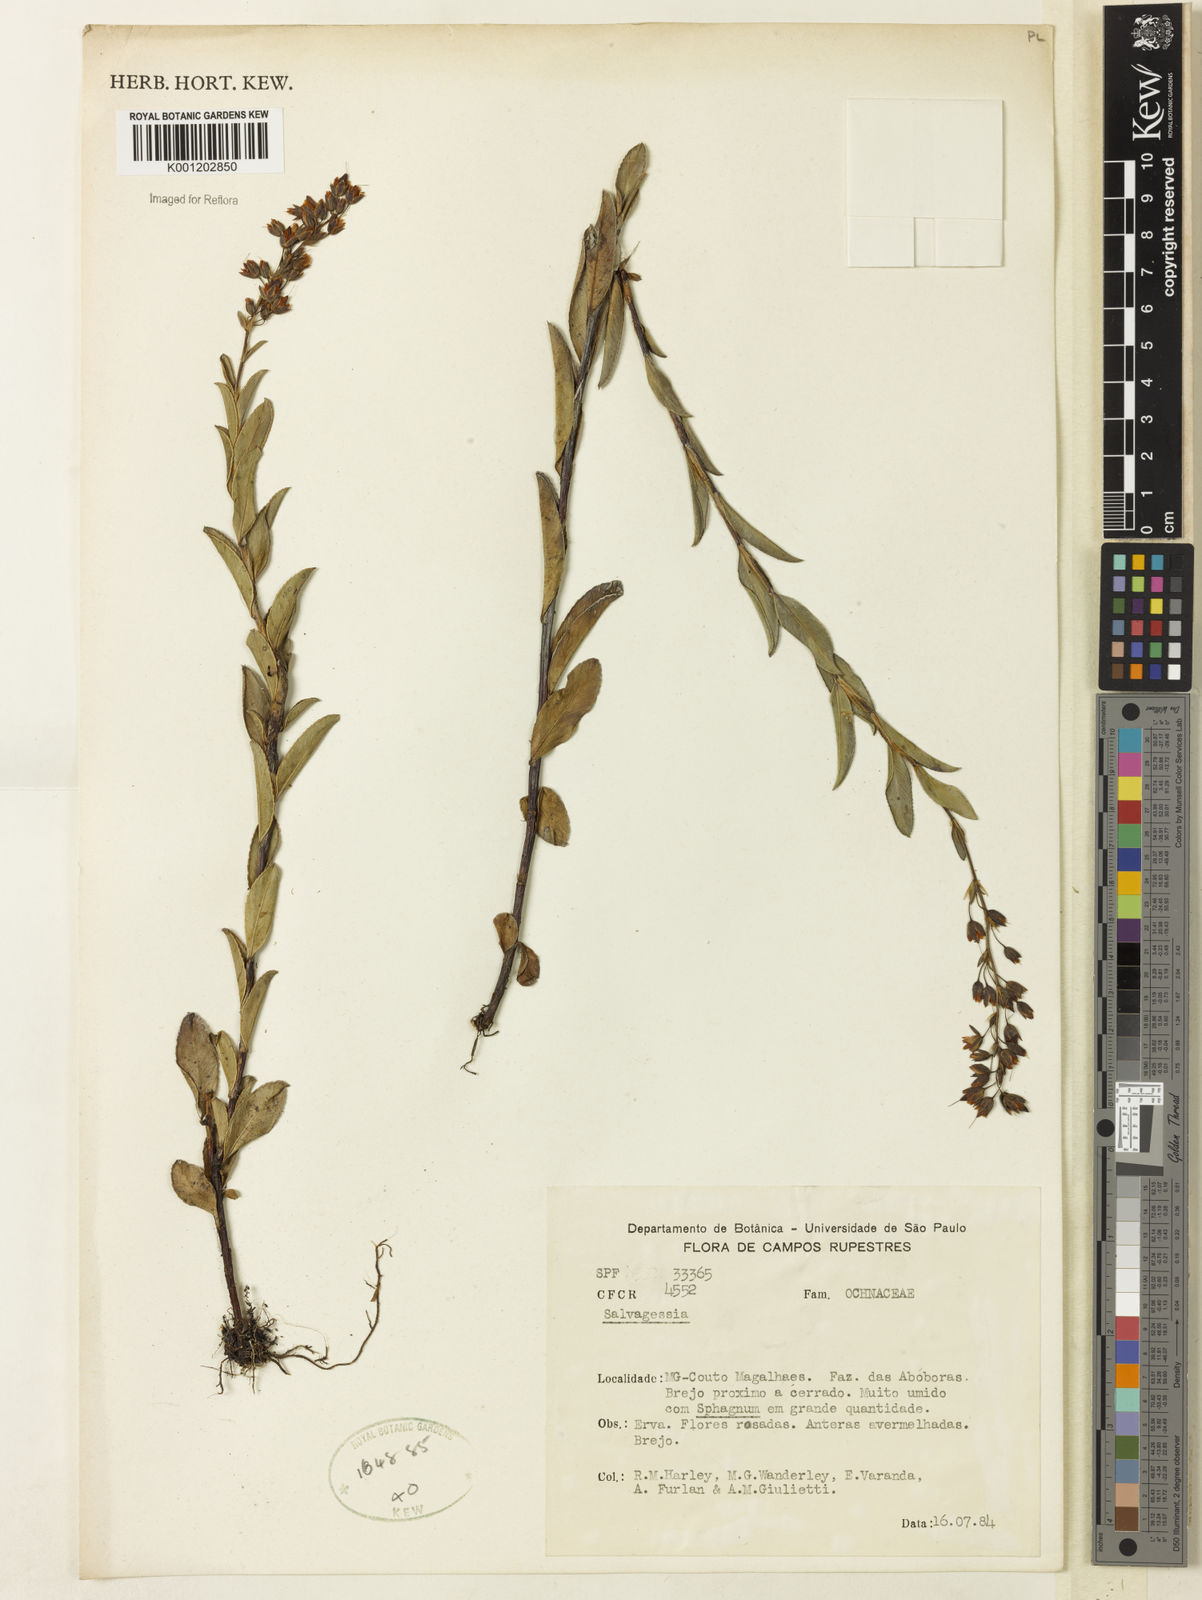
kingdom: Plantae
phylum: Tracheophyta
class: Magnoliopsida
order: Malpighiales
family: Ochnaceae
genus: Sauvagesia
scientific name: Sauvagesia
